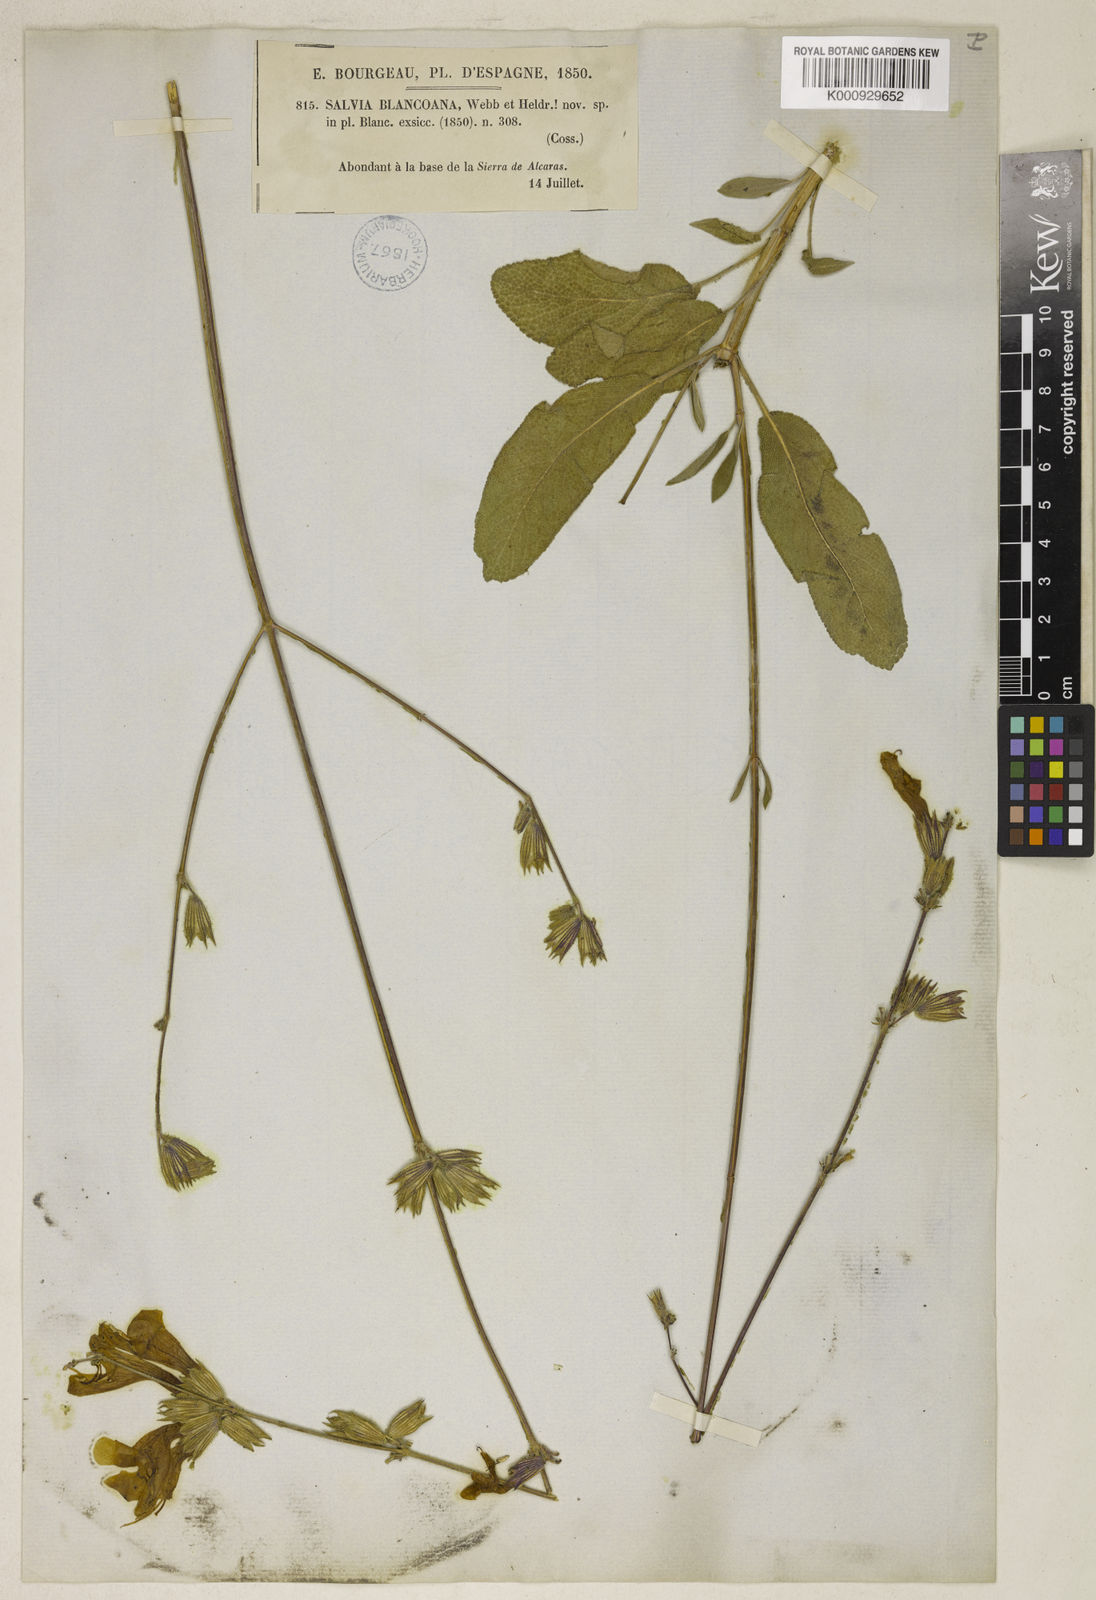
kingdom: Plantae
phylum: Tracheophyta
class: Magnoliopsida
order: Lamiales
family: Lamiaceae
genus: Salvia
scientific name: Salvia blancoana
